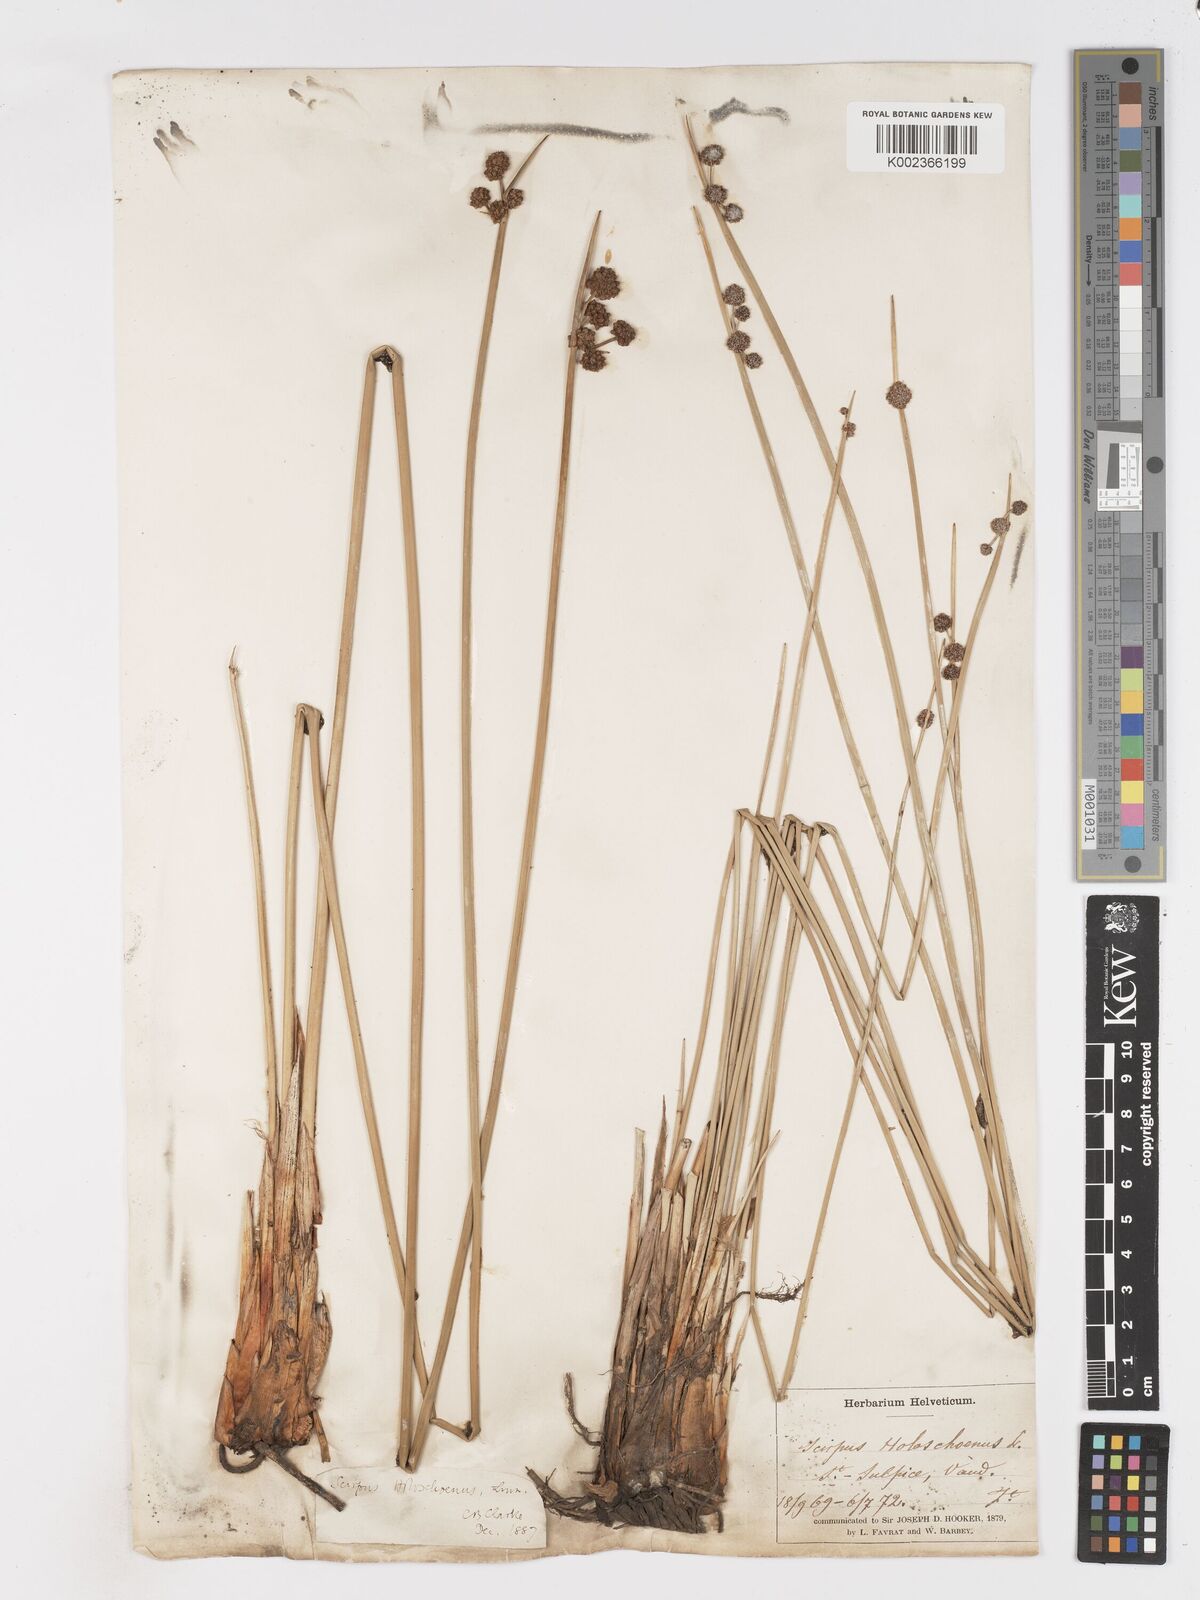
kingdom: Plantae
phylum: Tracheophyta
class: Liliopsida
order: Poales
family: Cyperaceae
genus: Scirpoides
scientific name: Scirpoides holoschoenus
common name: Round-headed club-rush
